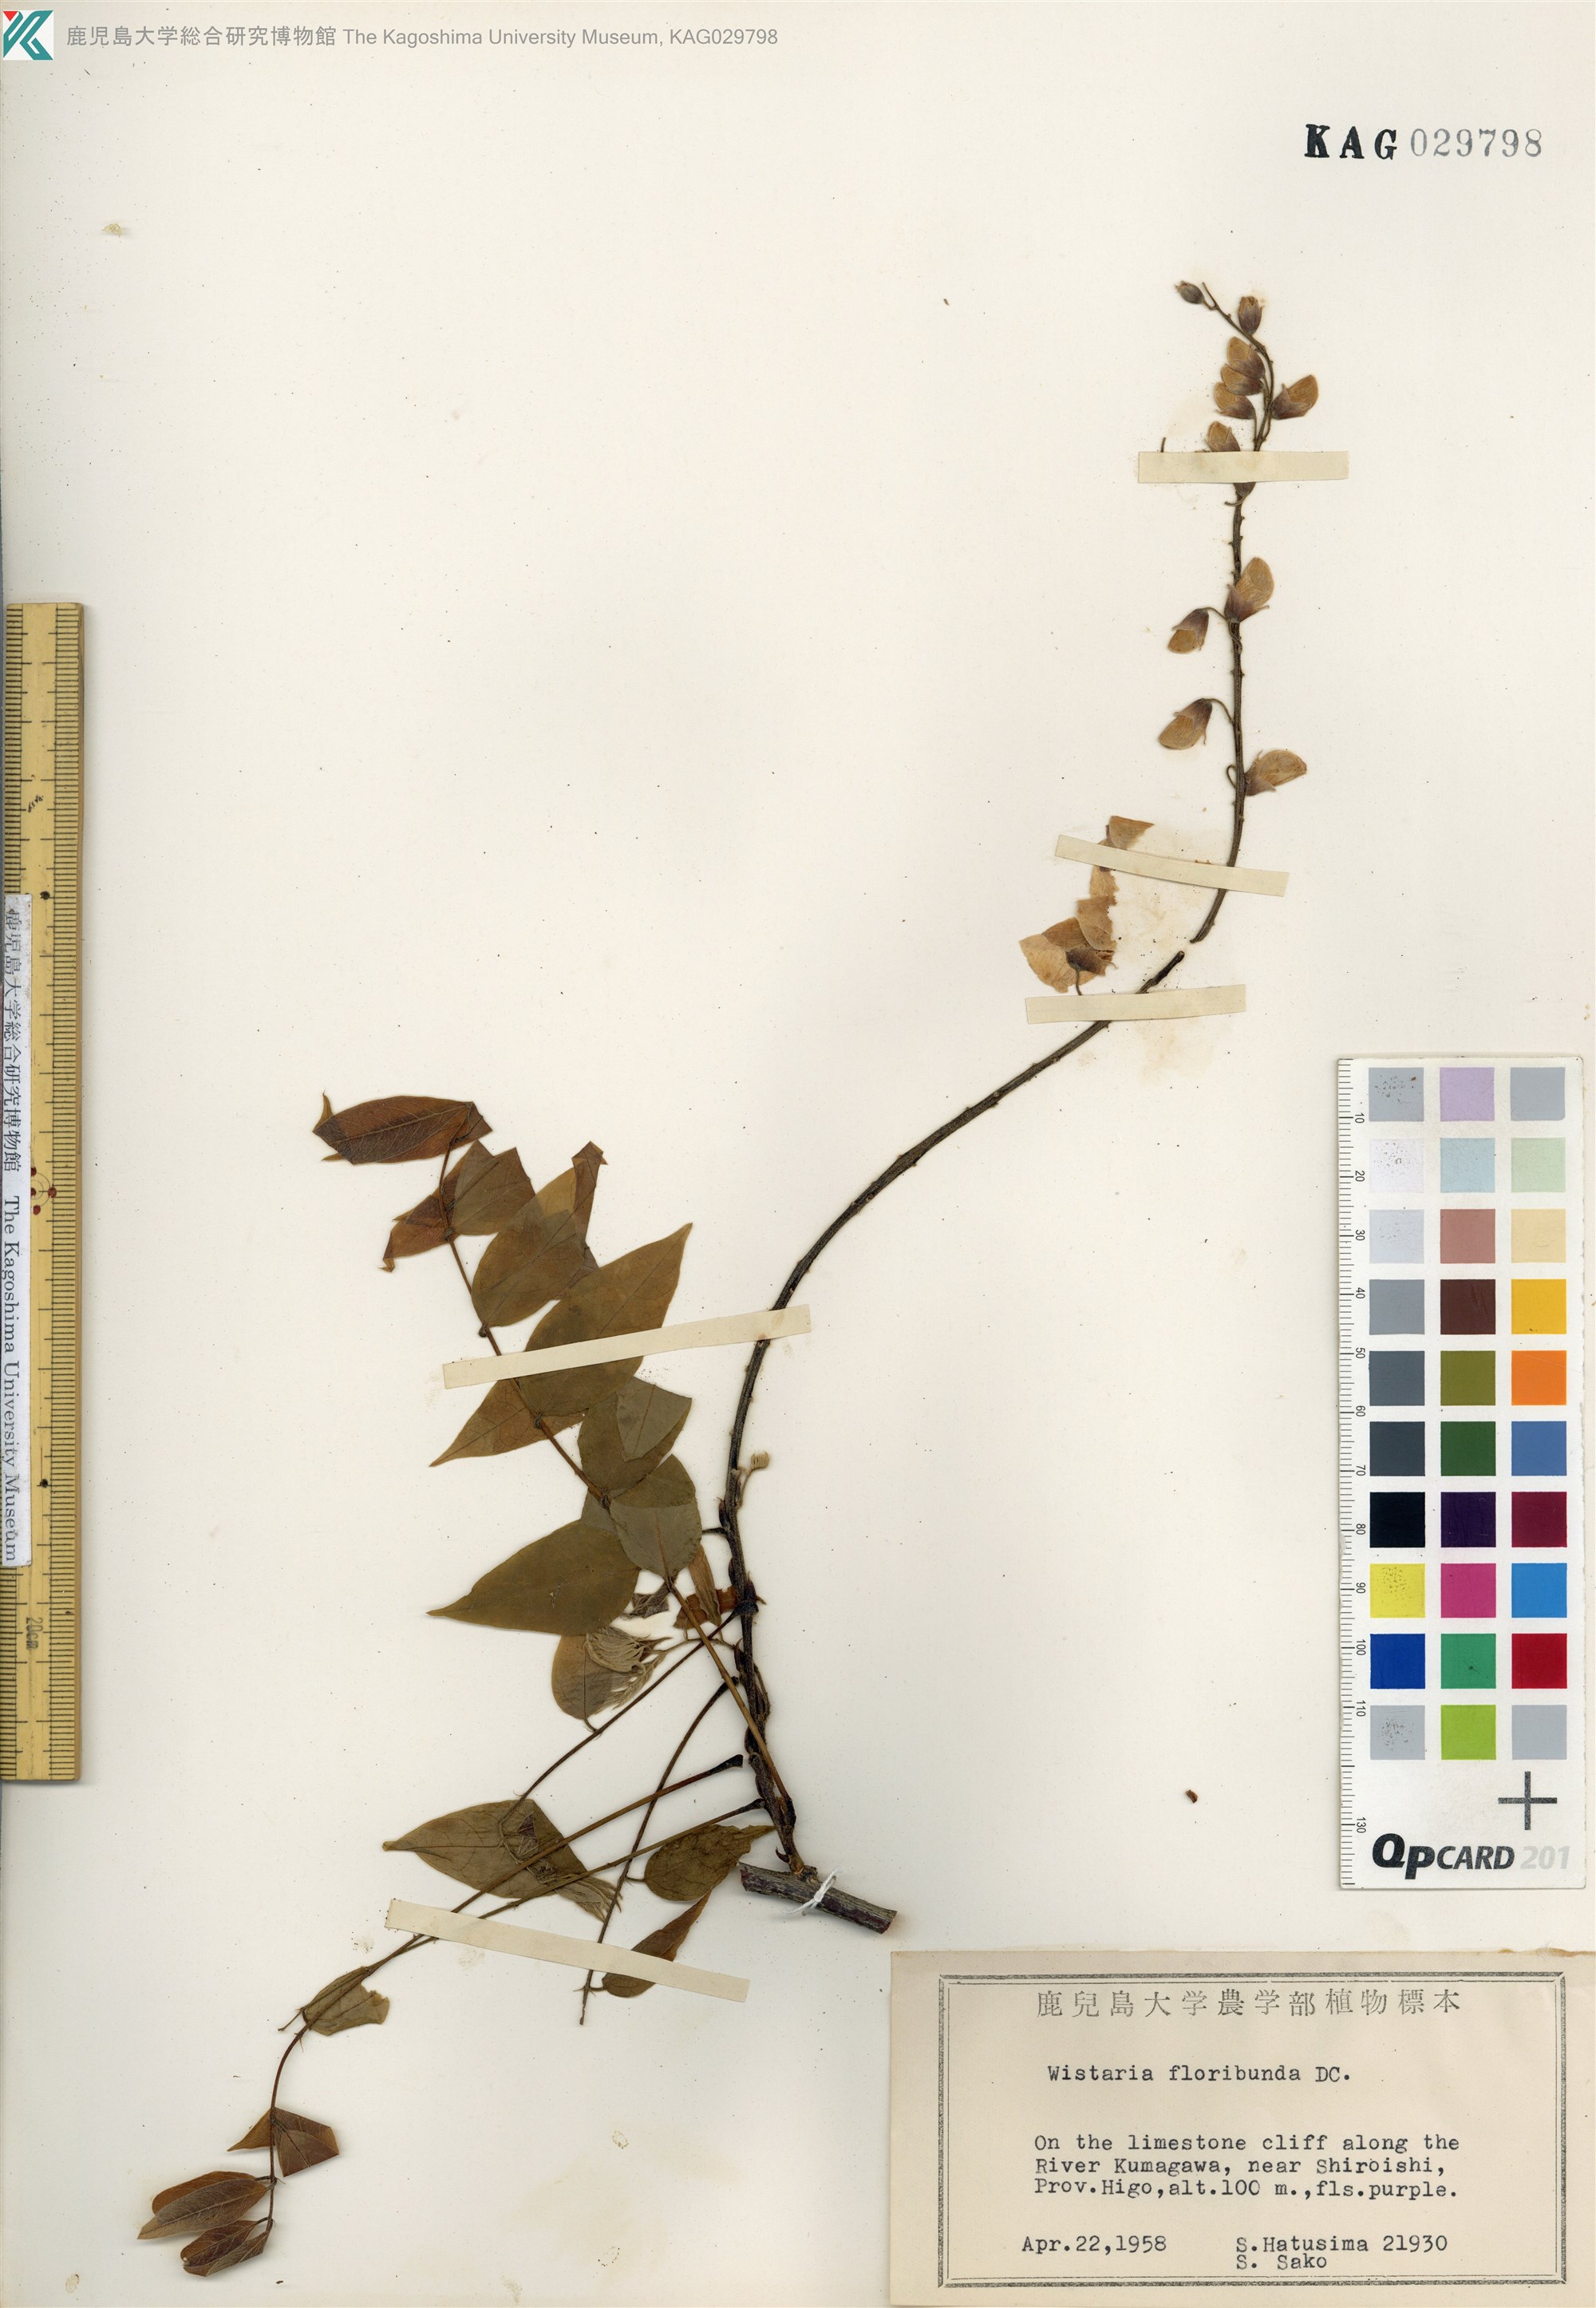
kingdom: Plantae
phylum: Tracheophyta
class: Magnoliopsida
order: Fabales
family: Fabaceae
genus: Wisteria
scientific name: Wisteria floribunda
